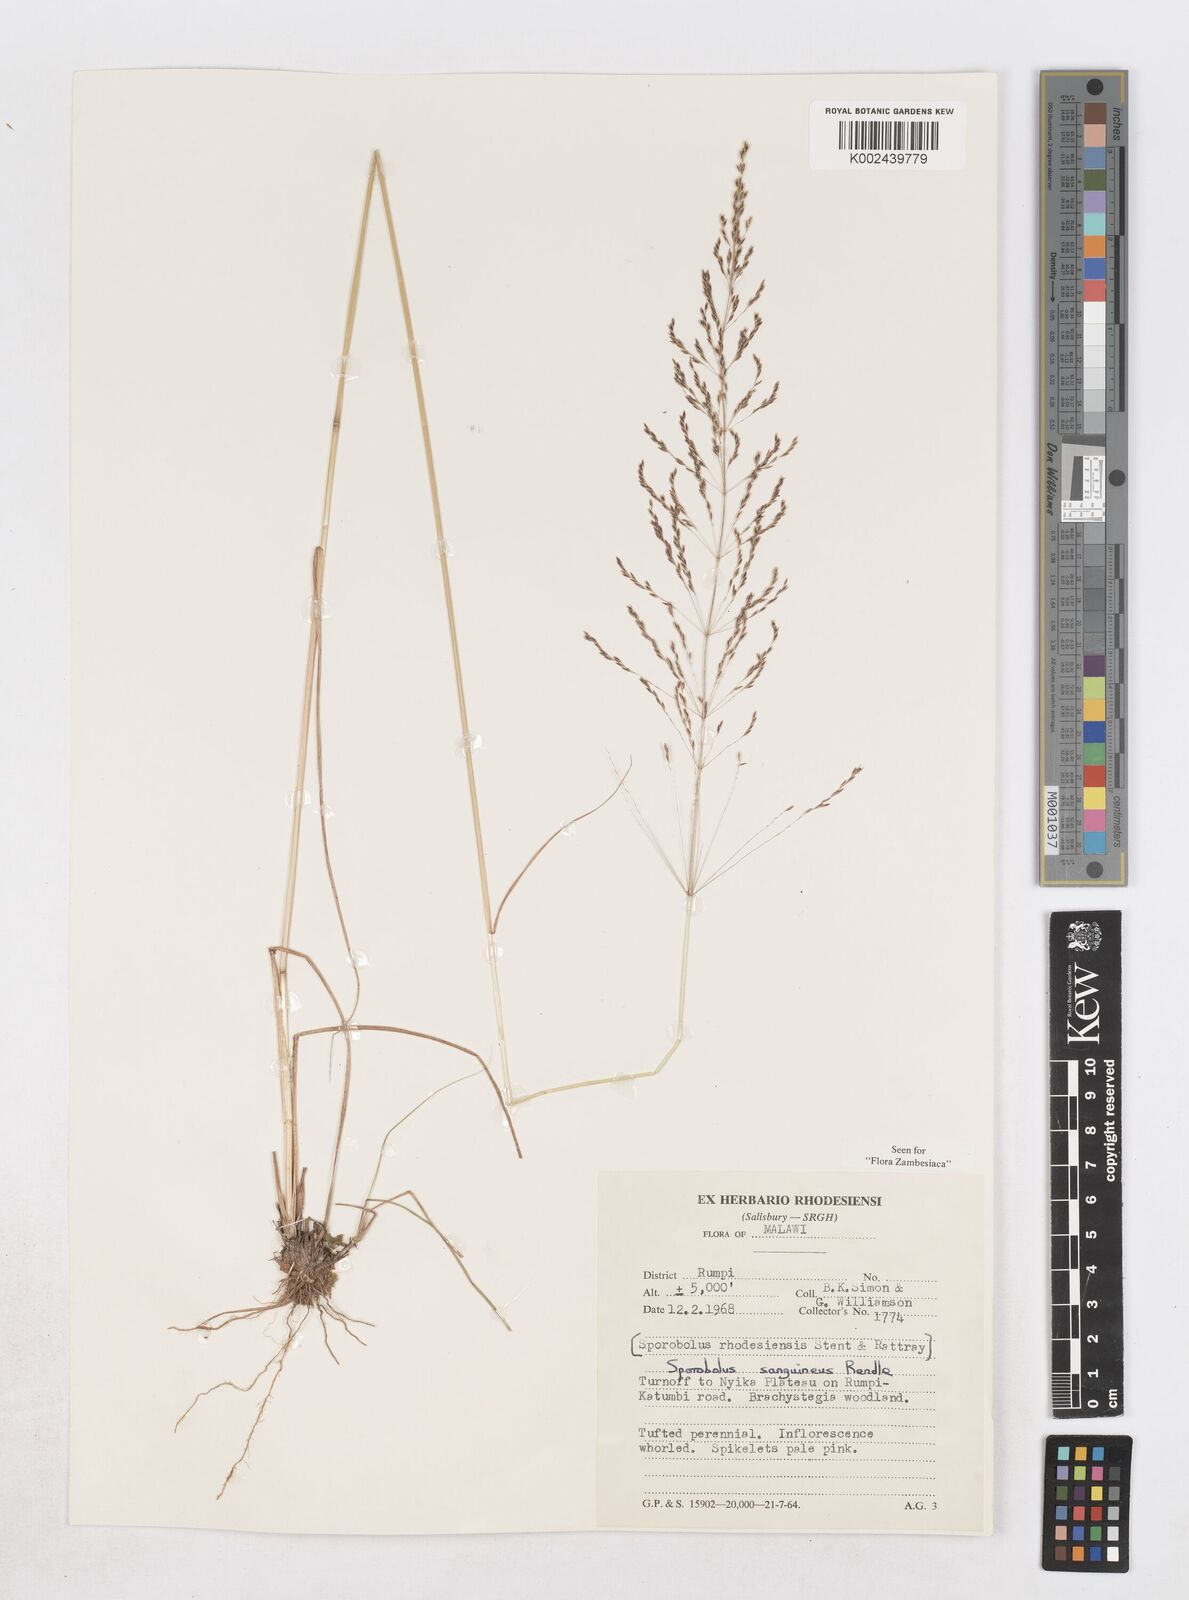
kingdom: Plantae
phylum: Tracheophyta
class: Liliopsida
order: Poales
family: Poaceae
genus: Sporobolus
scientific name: Sporobolus sanguineus
